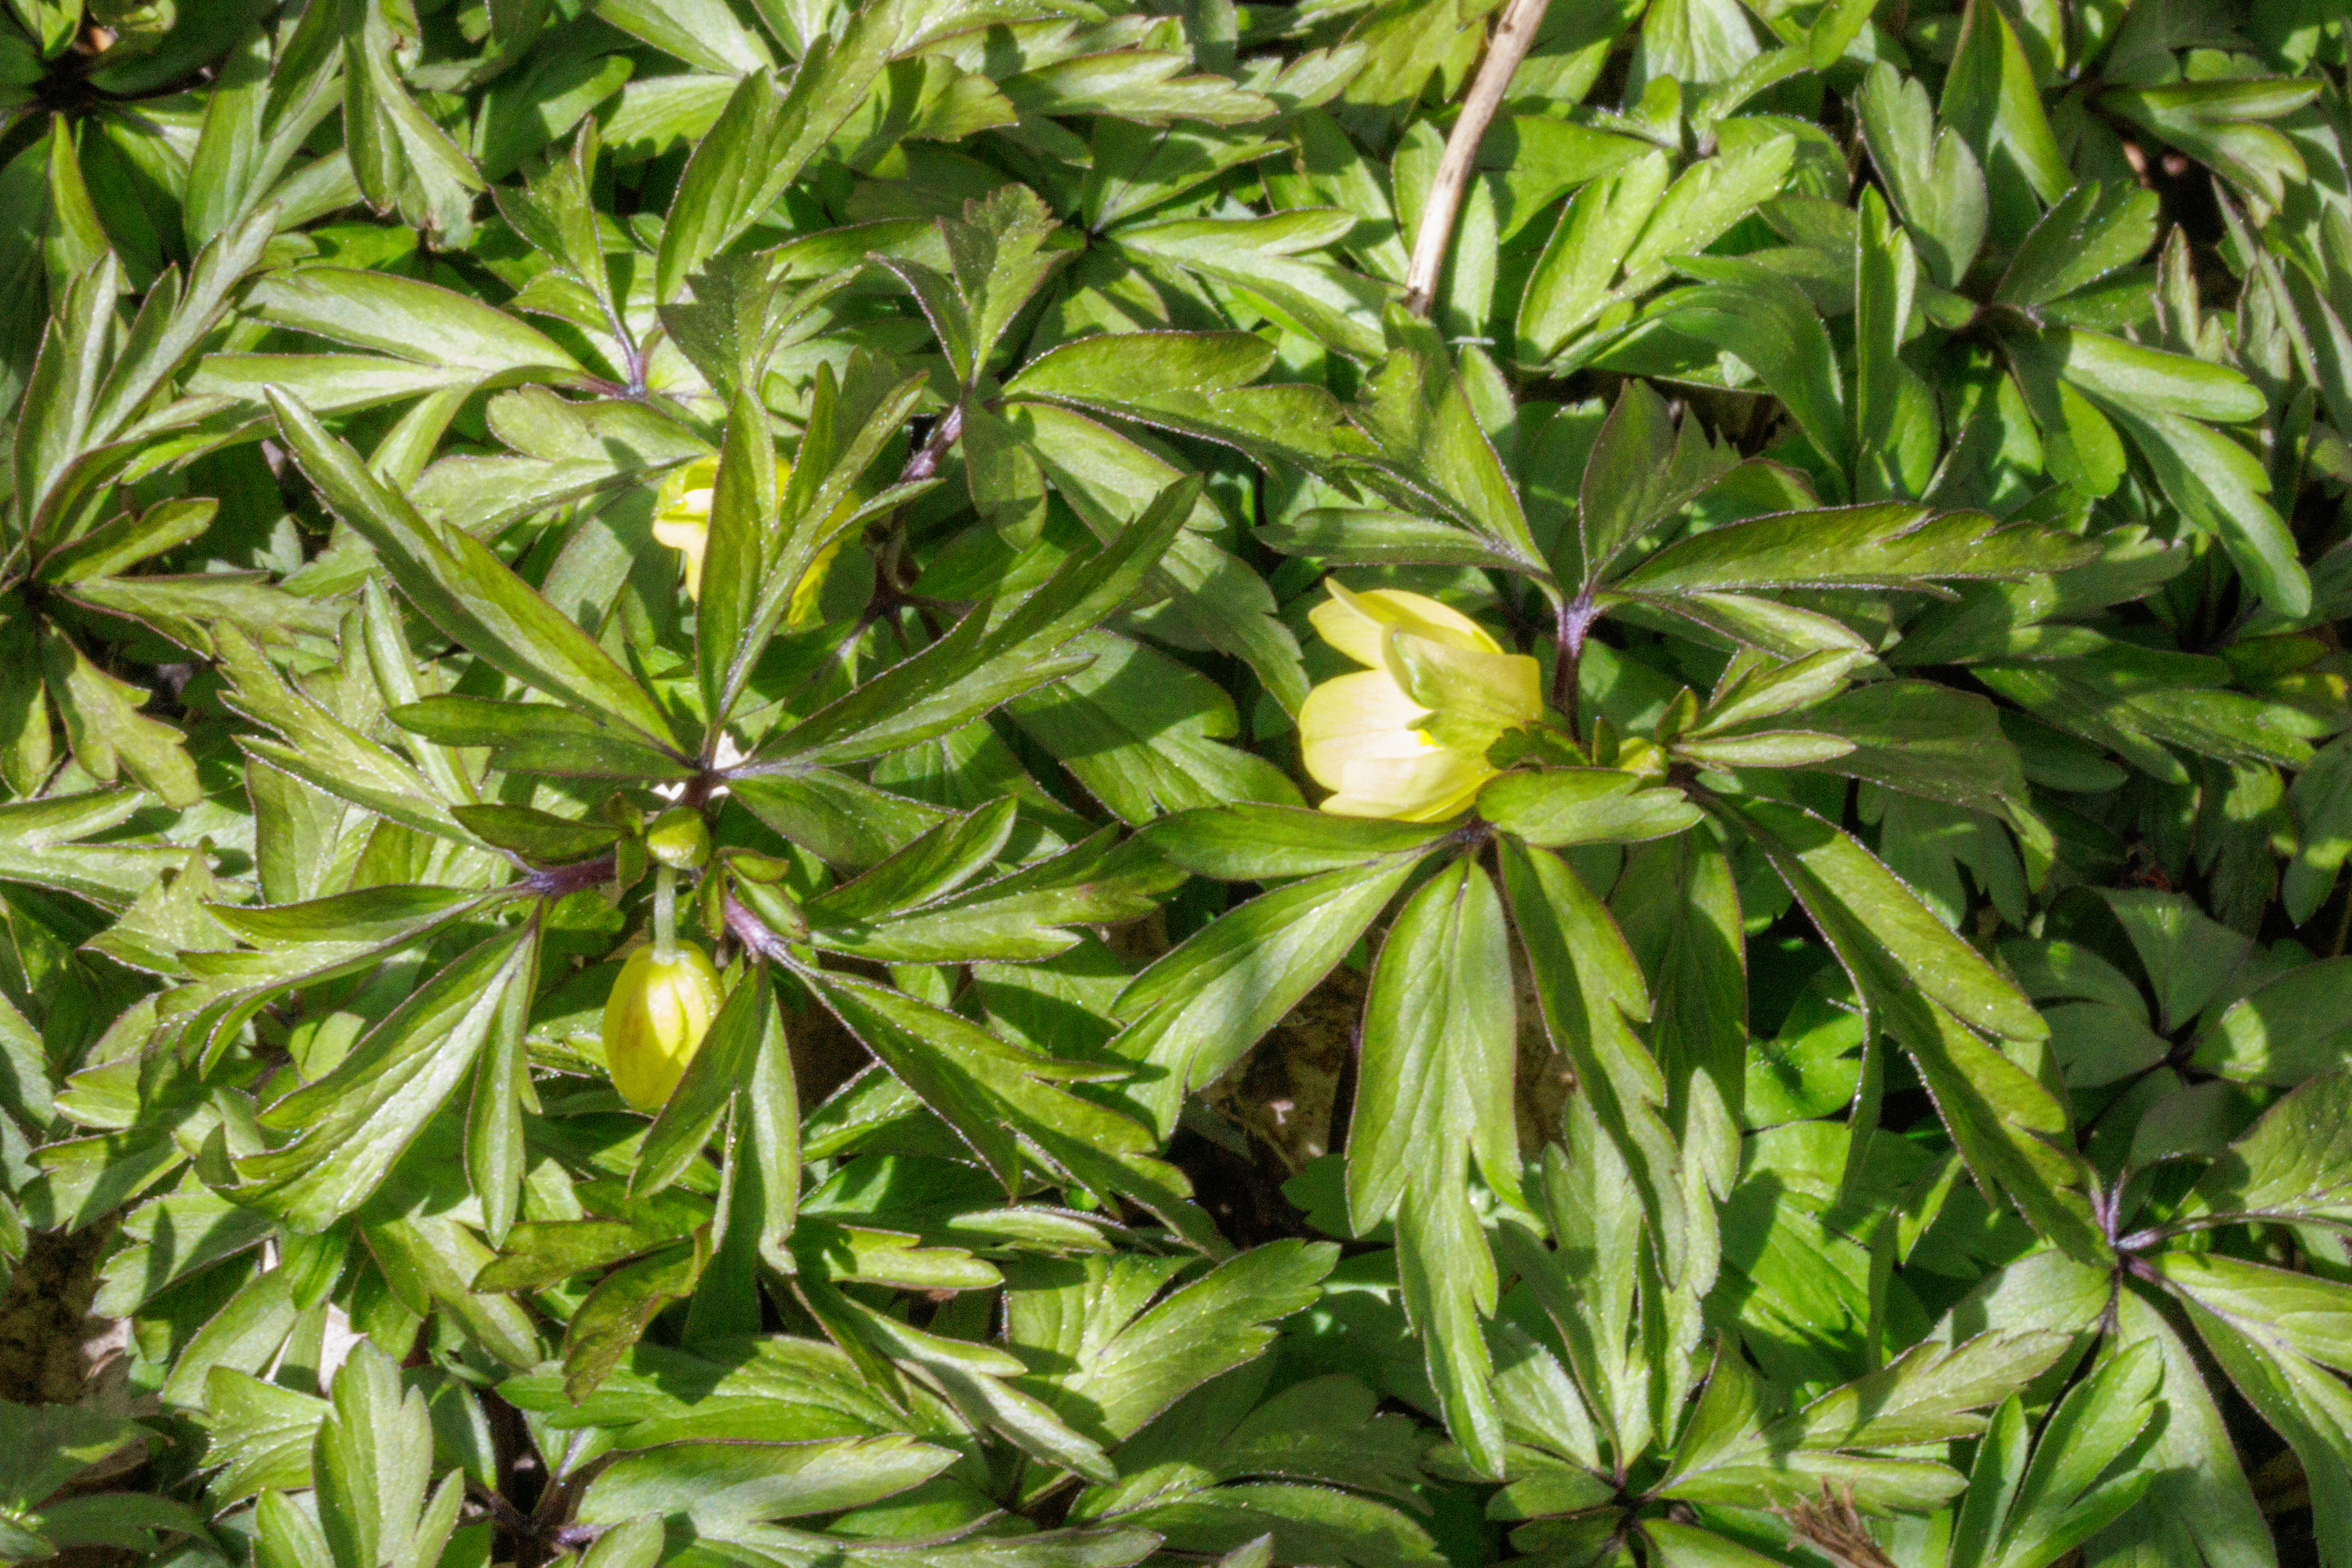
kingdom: Plantae
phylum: Tracheophyta
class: Magnoliopsida
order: Ranunculales
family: Ranunculaceae
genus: Anemone
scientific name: Anemone
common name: Svovlgul anemone
